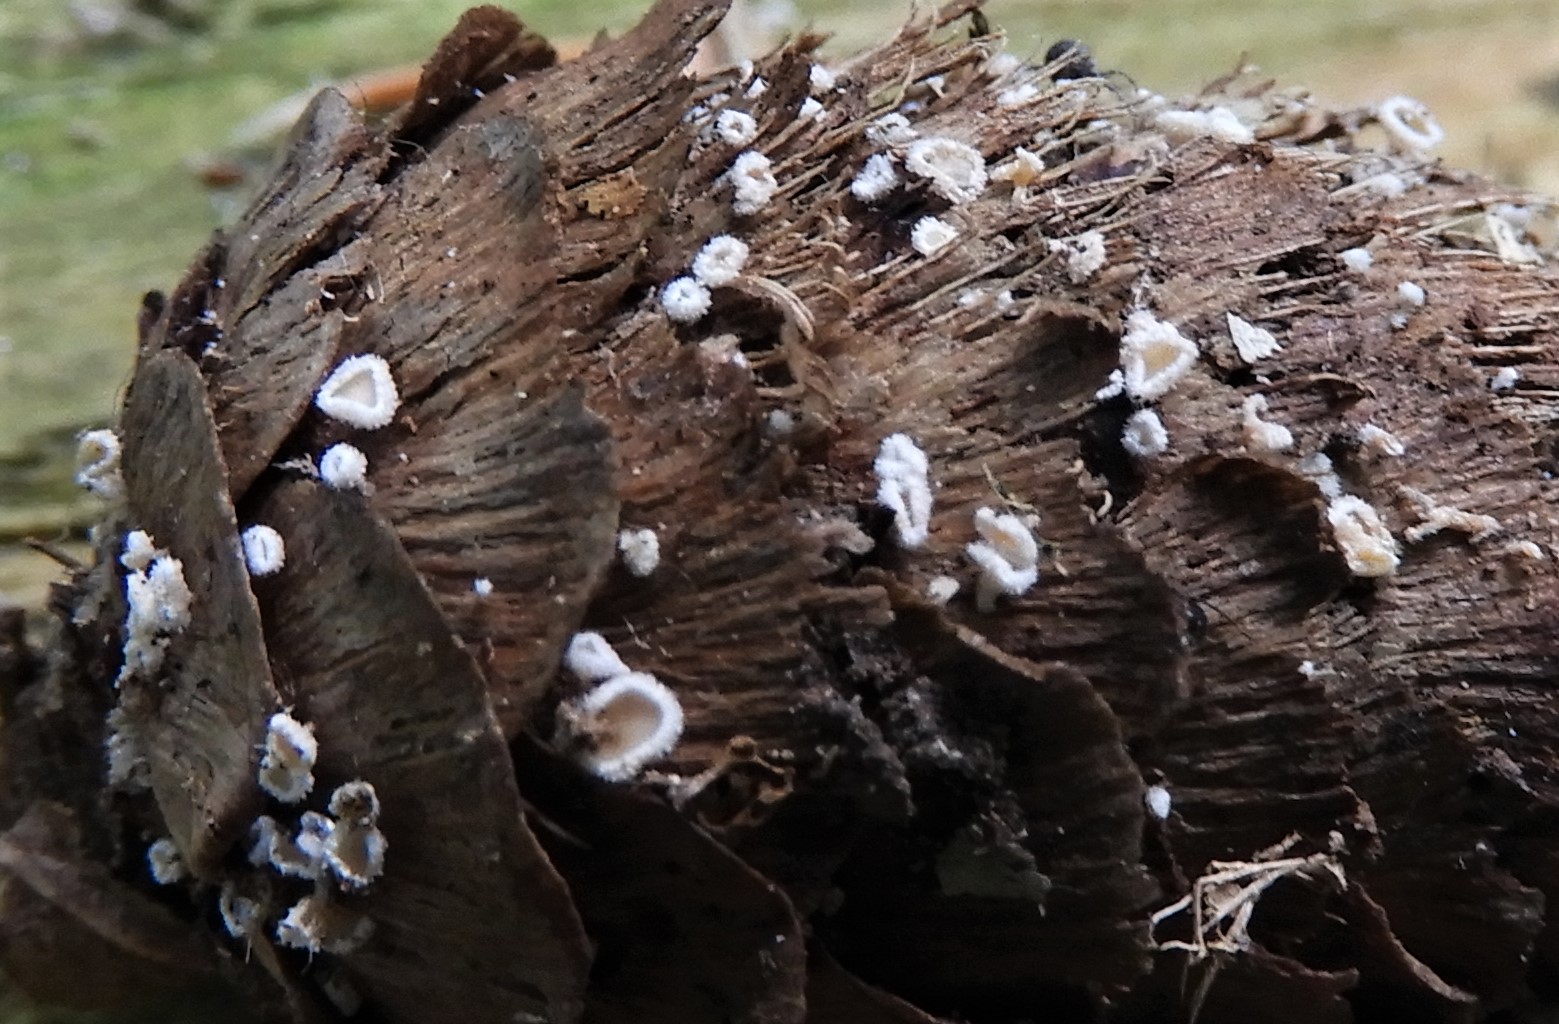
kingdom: Fungi
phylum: Ascomycota
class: Leotiomycetes
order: Helotiales
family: Lachnaceae
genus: Lachnum
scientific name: Lachnum virgineum
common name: jomfru-frynseskive
